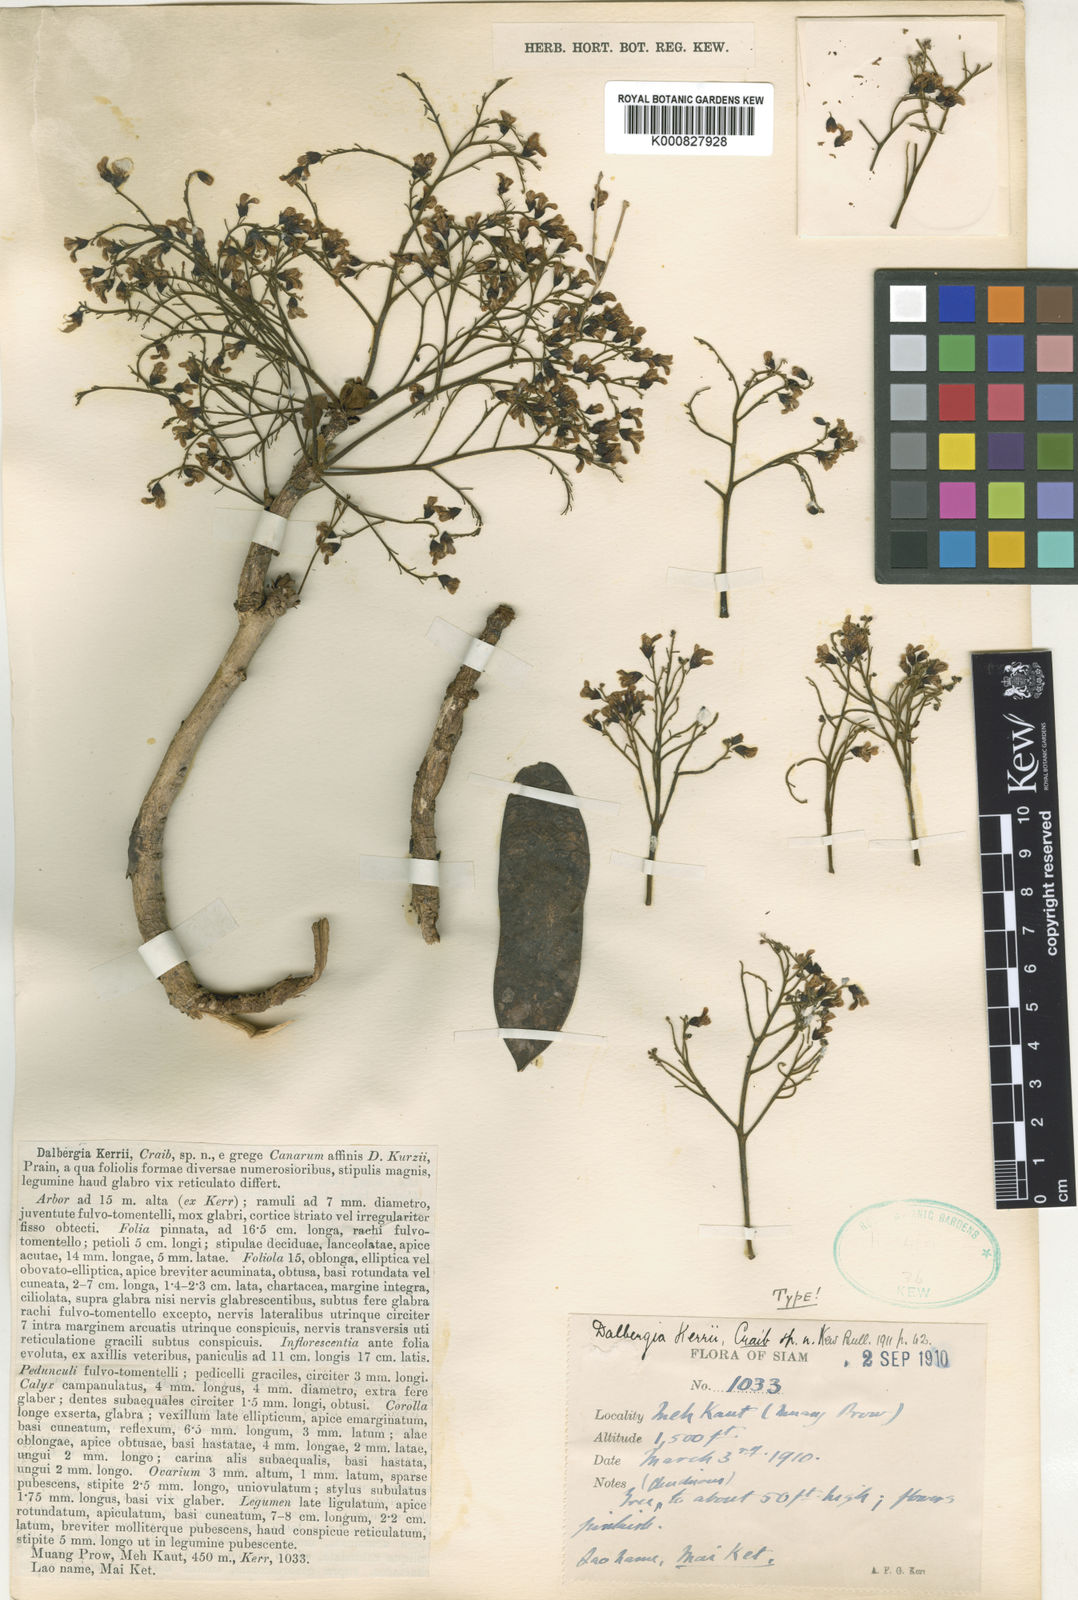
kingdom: Plantae
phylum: Tracheophyta
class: Magnoliopsida
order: Fabales
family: Fabaceae
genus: Dalbergia
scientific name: Dalbergia
